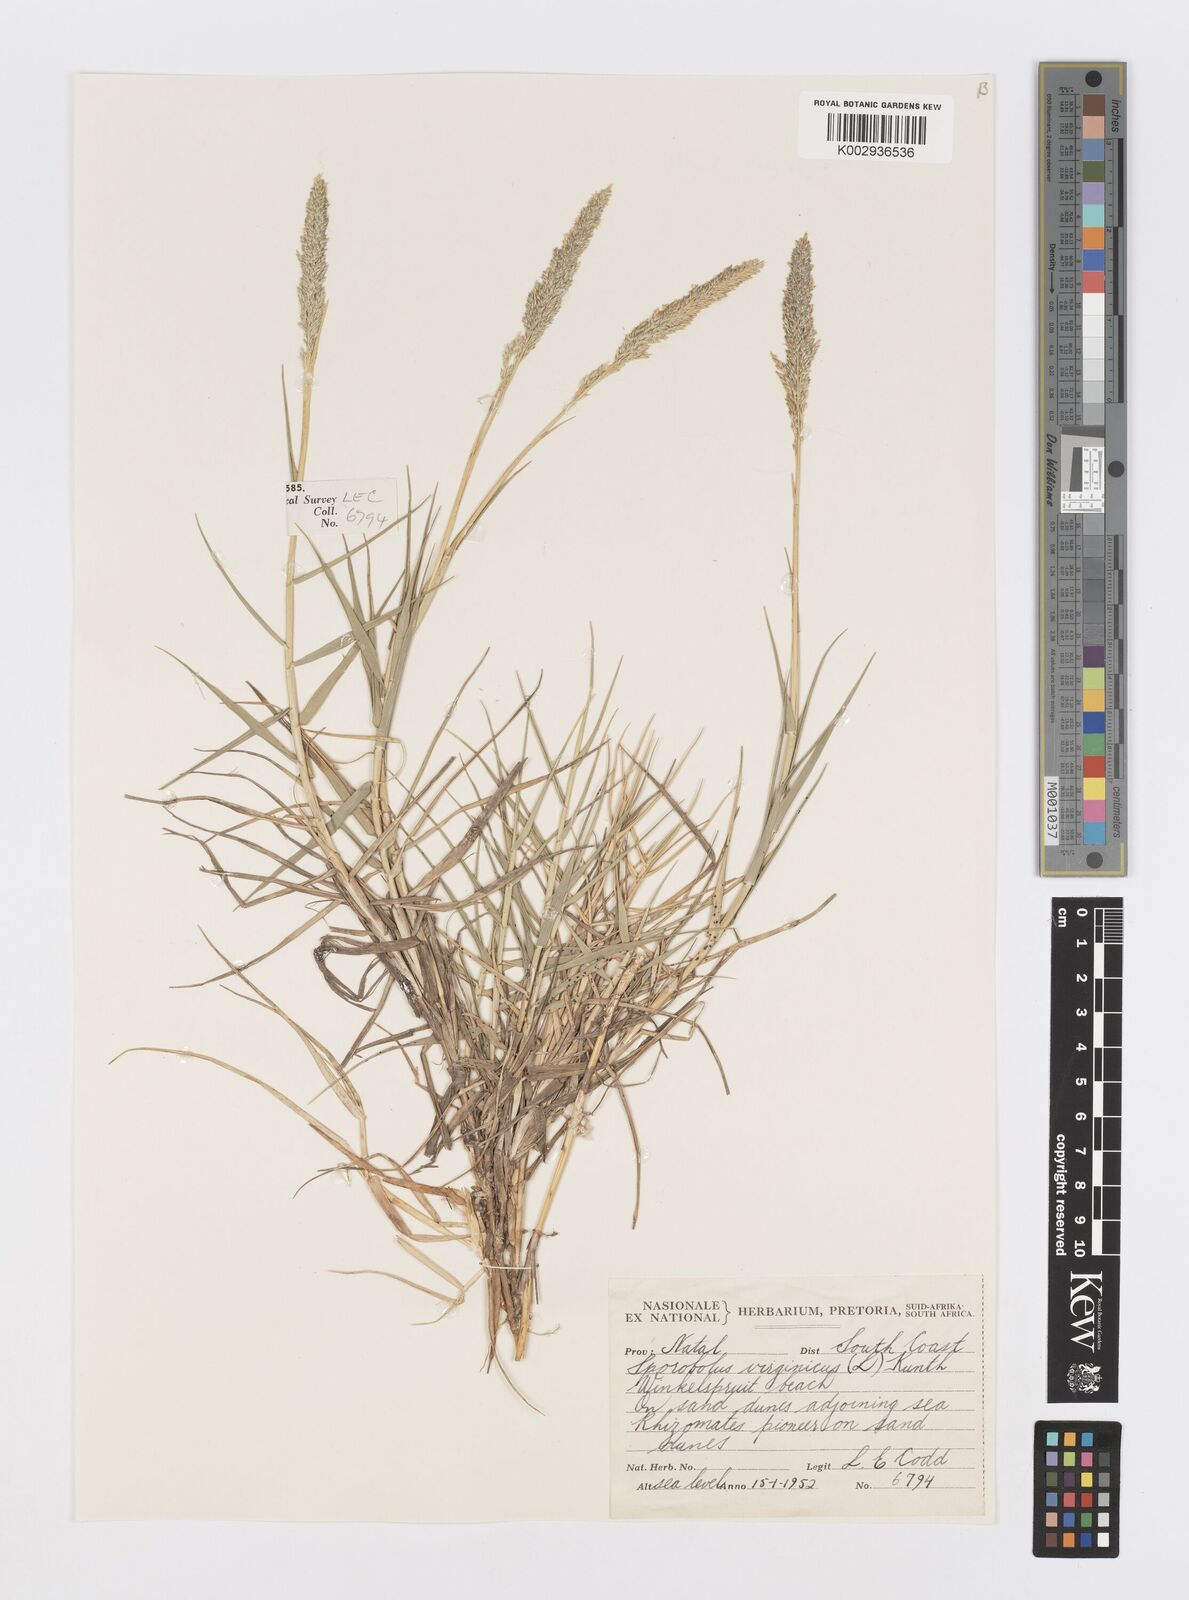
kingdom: Plantae
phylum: Tracheophyta
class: Liliopsida
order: Poales
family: Poaceae
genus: Sporobolus
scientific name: Sporobolus virginicus
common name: Beach dropseed
